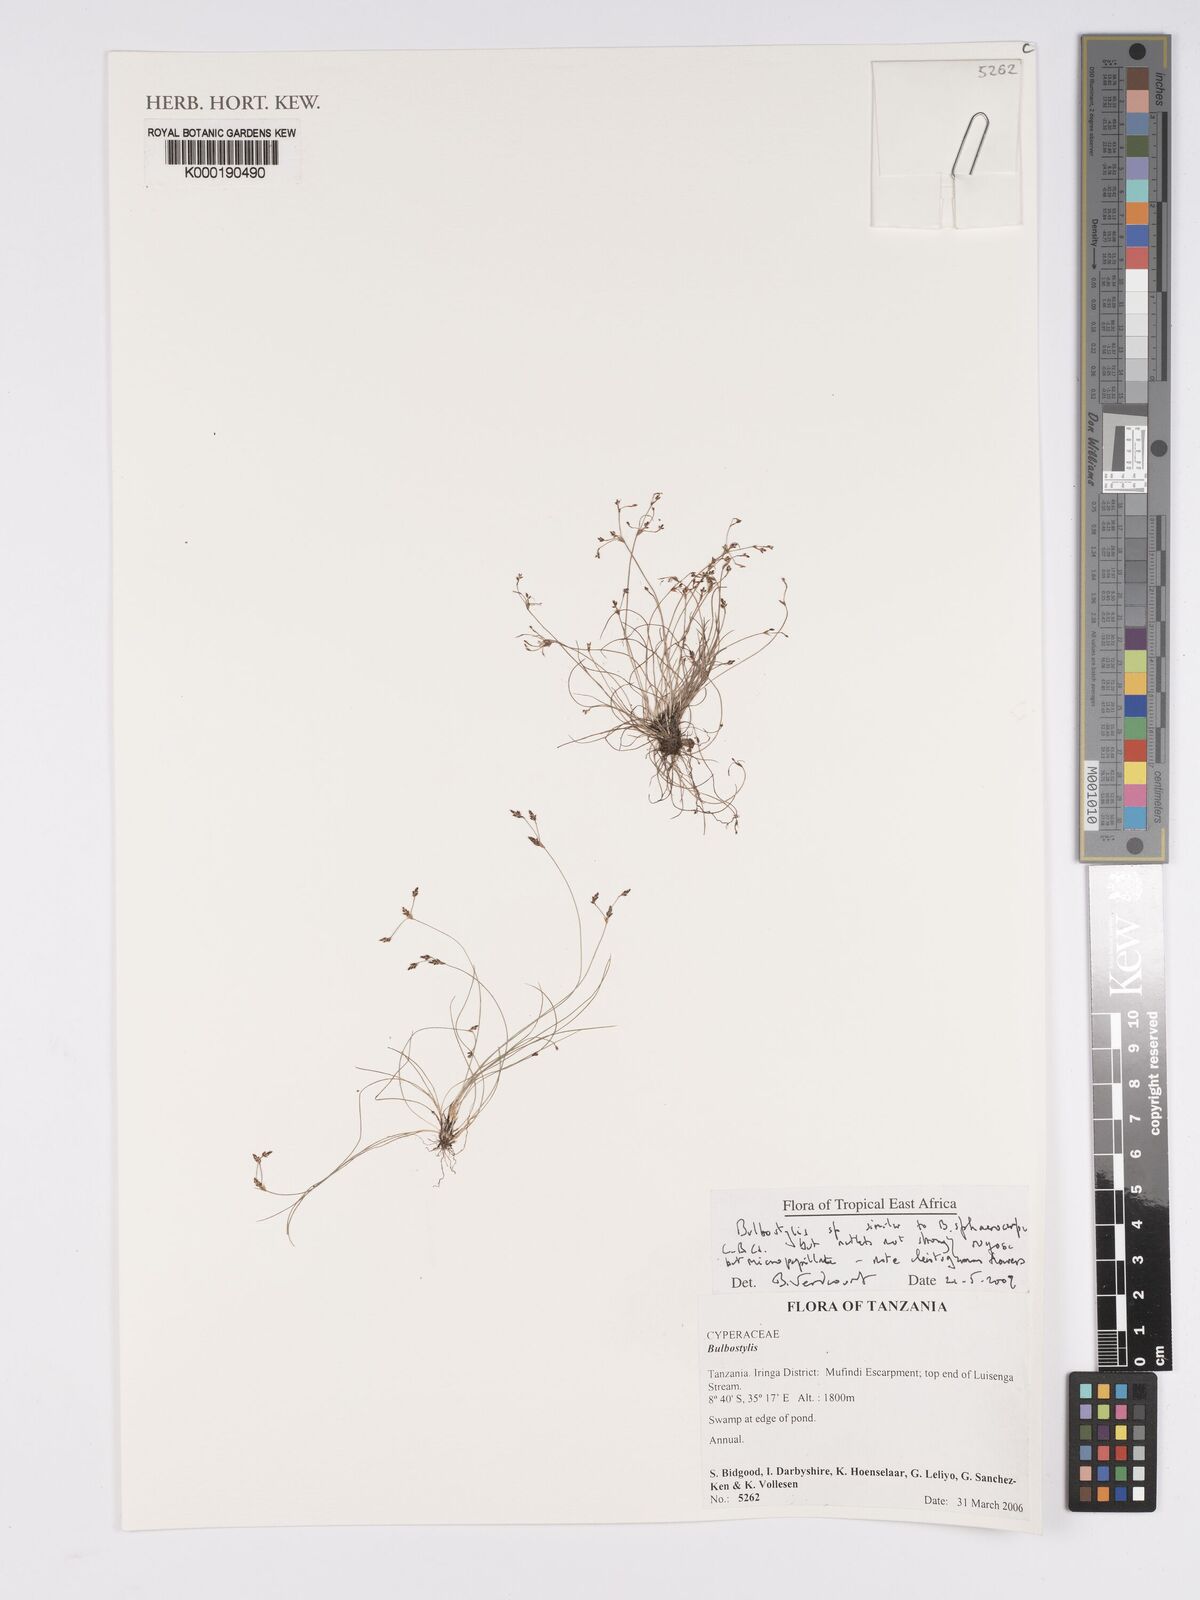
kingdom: Plantae
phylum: Tracheophyta
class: Liliopsida
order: Poales
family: Cyperaceae
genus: Bulbostylis
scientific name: Bulbostylis
